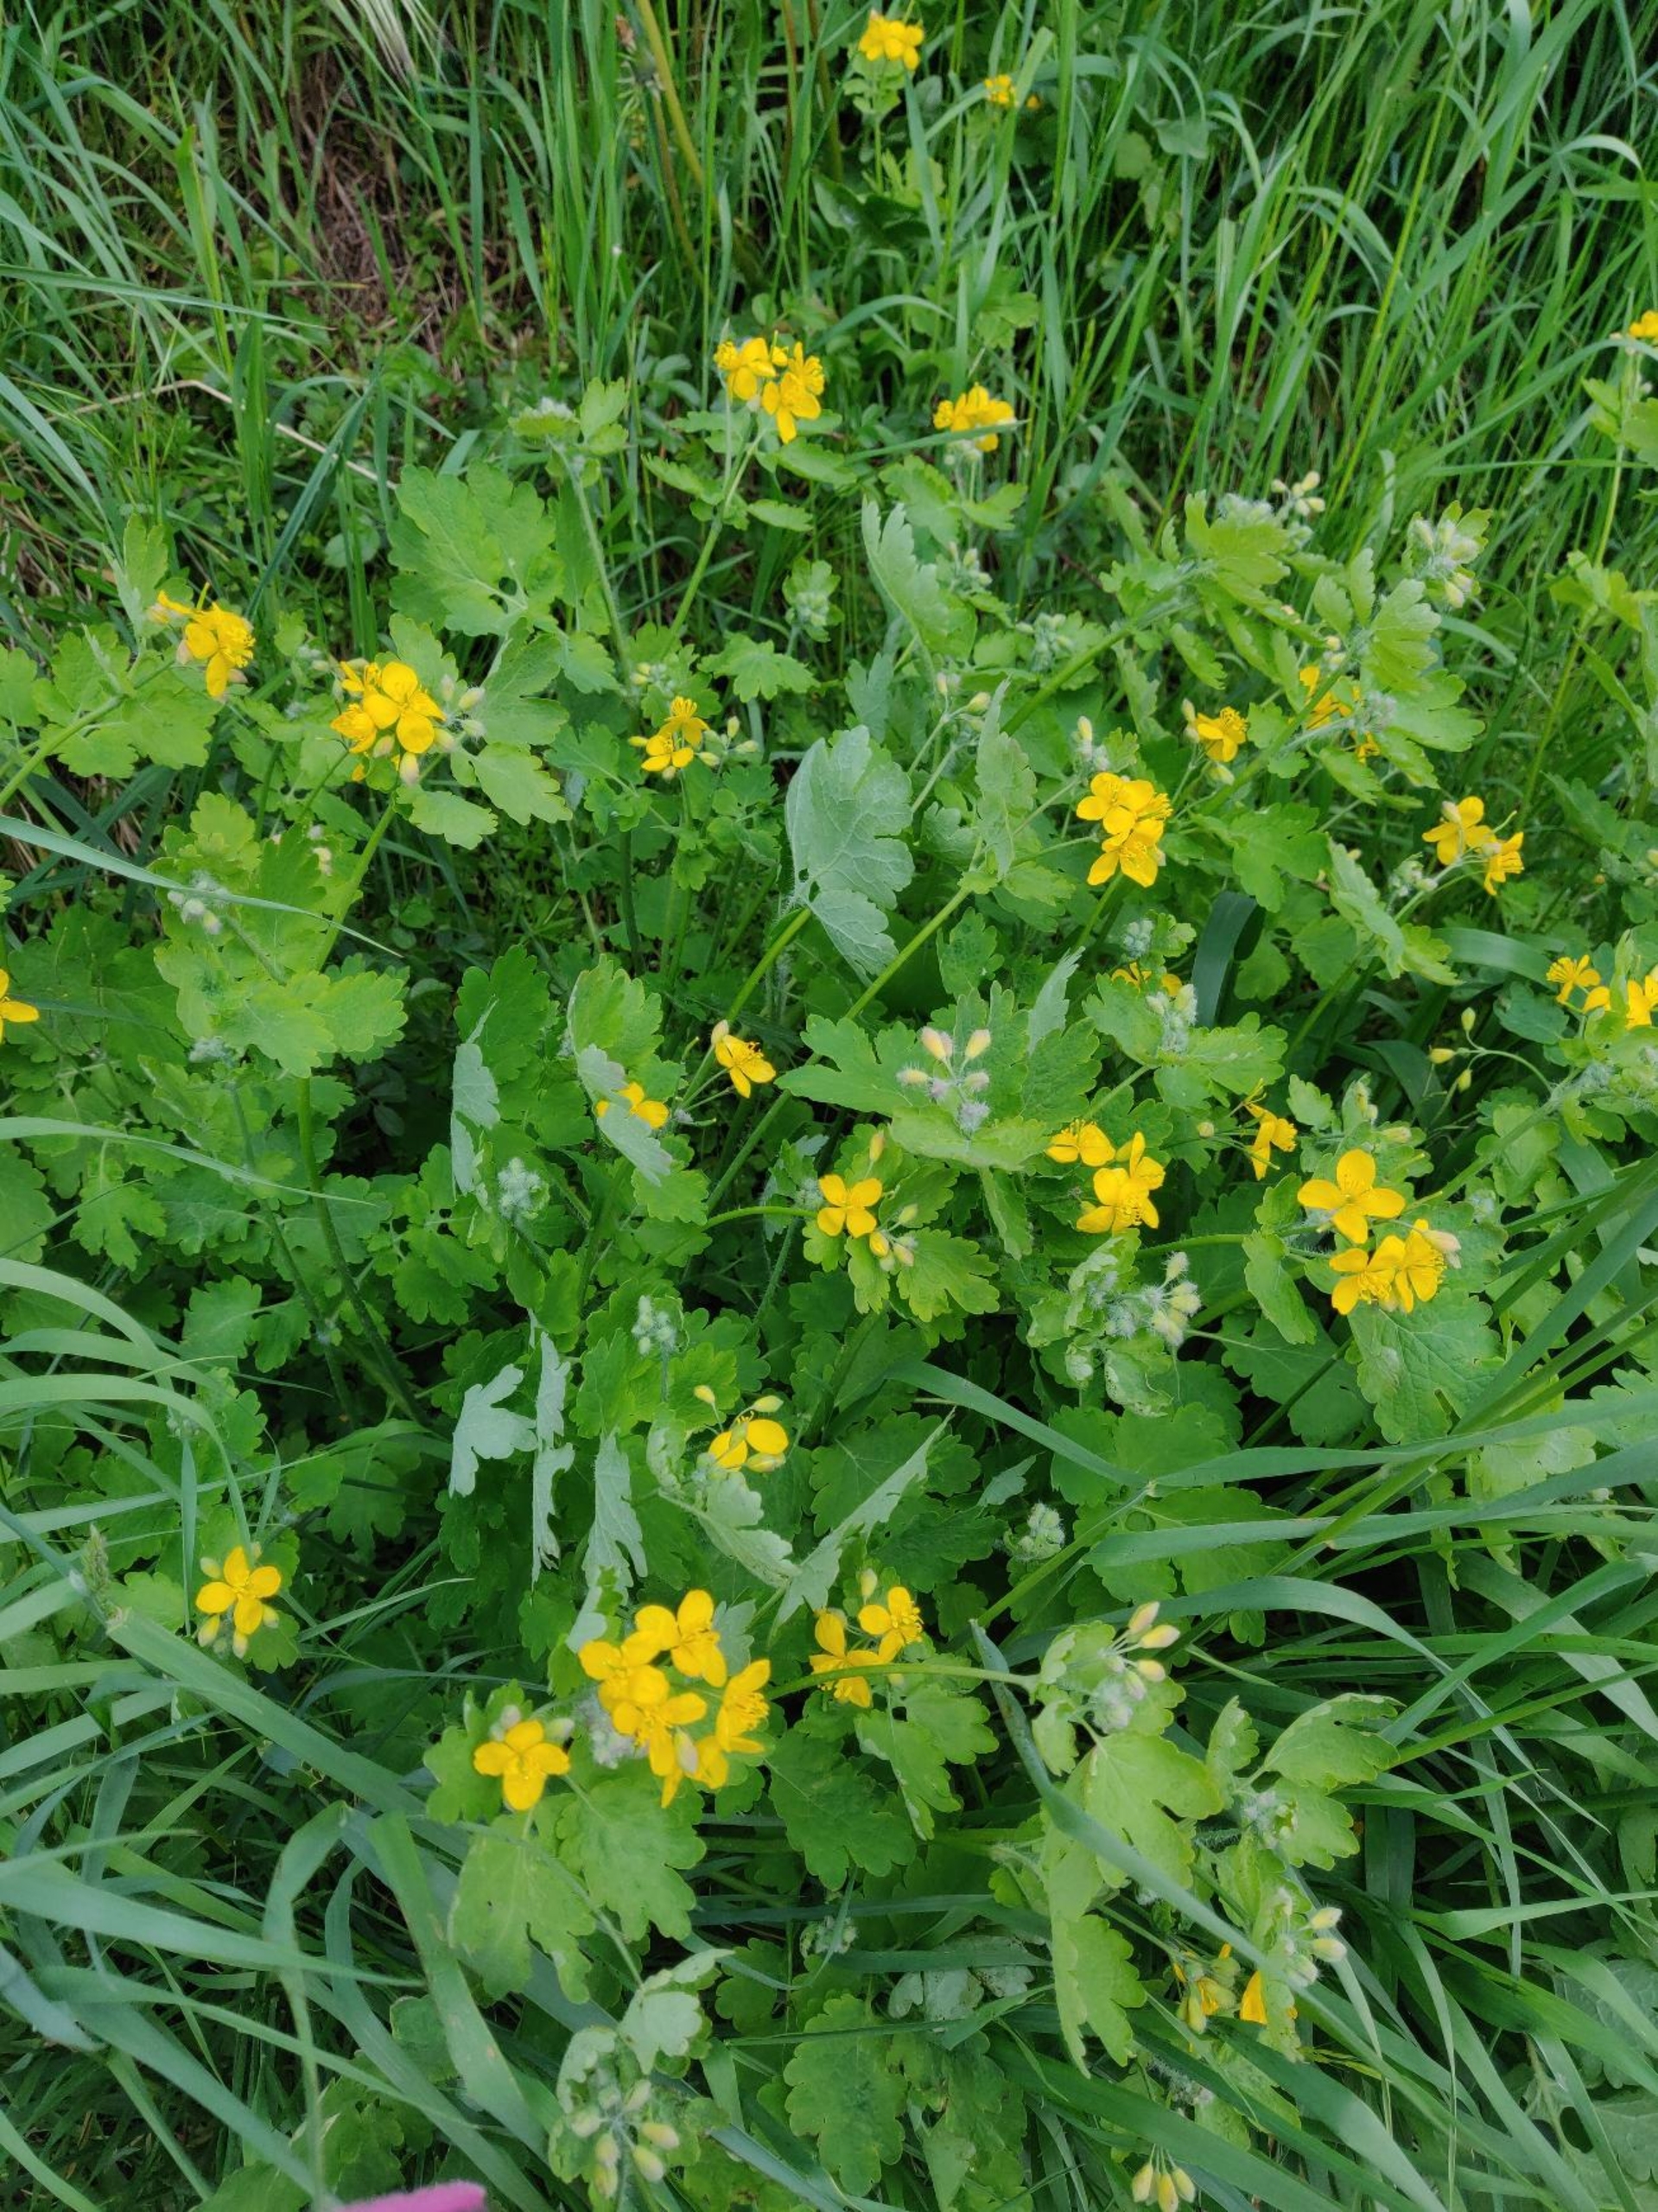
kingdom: Plantae
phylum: Tracheophyta
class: Magnoliopsida
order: Ranunculales
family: Papaveraceae
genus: Chelidonium
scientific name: Chelidonium majus
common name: Svaleurt
